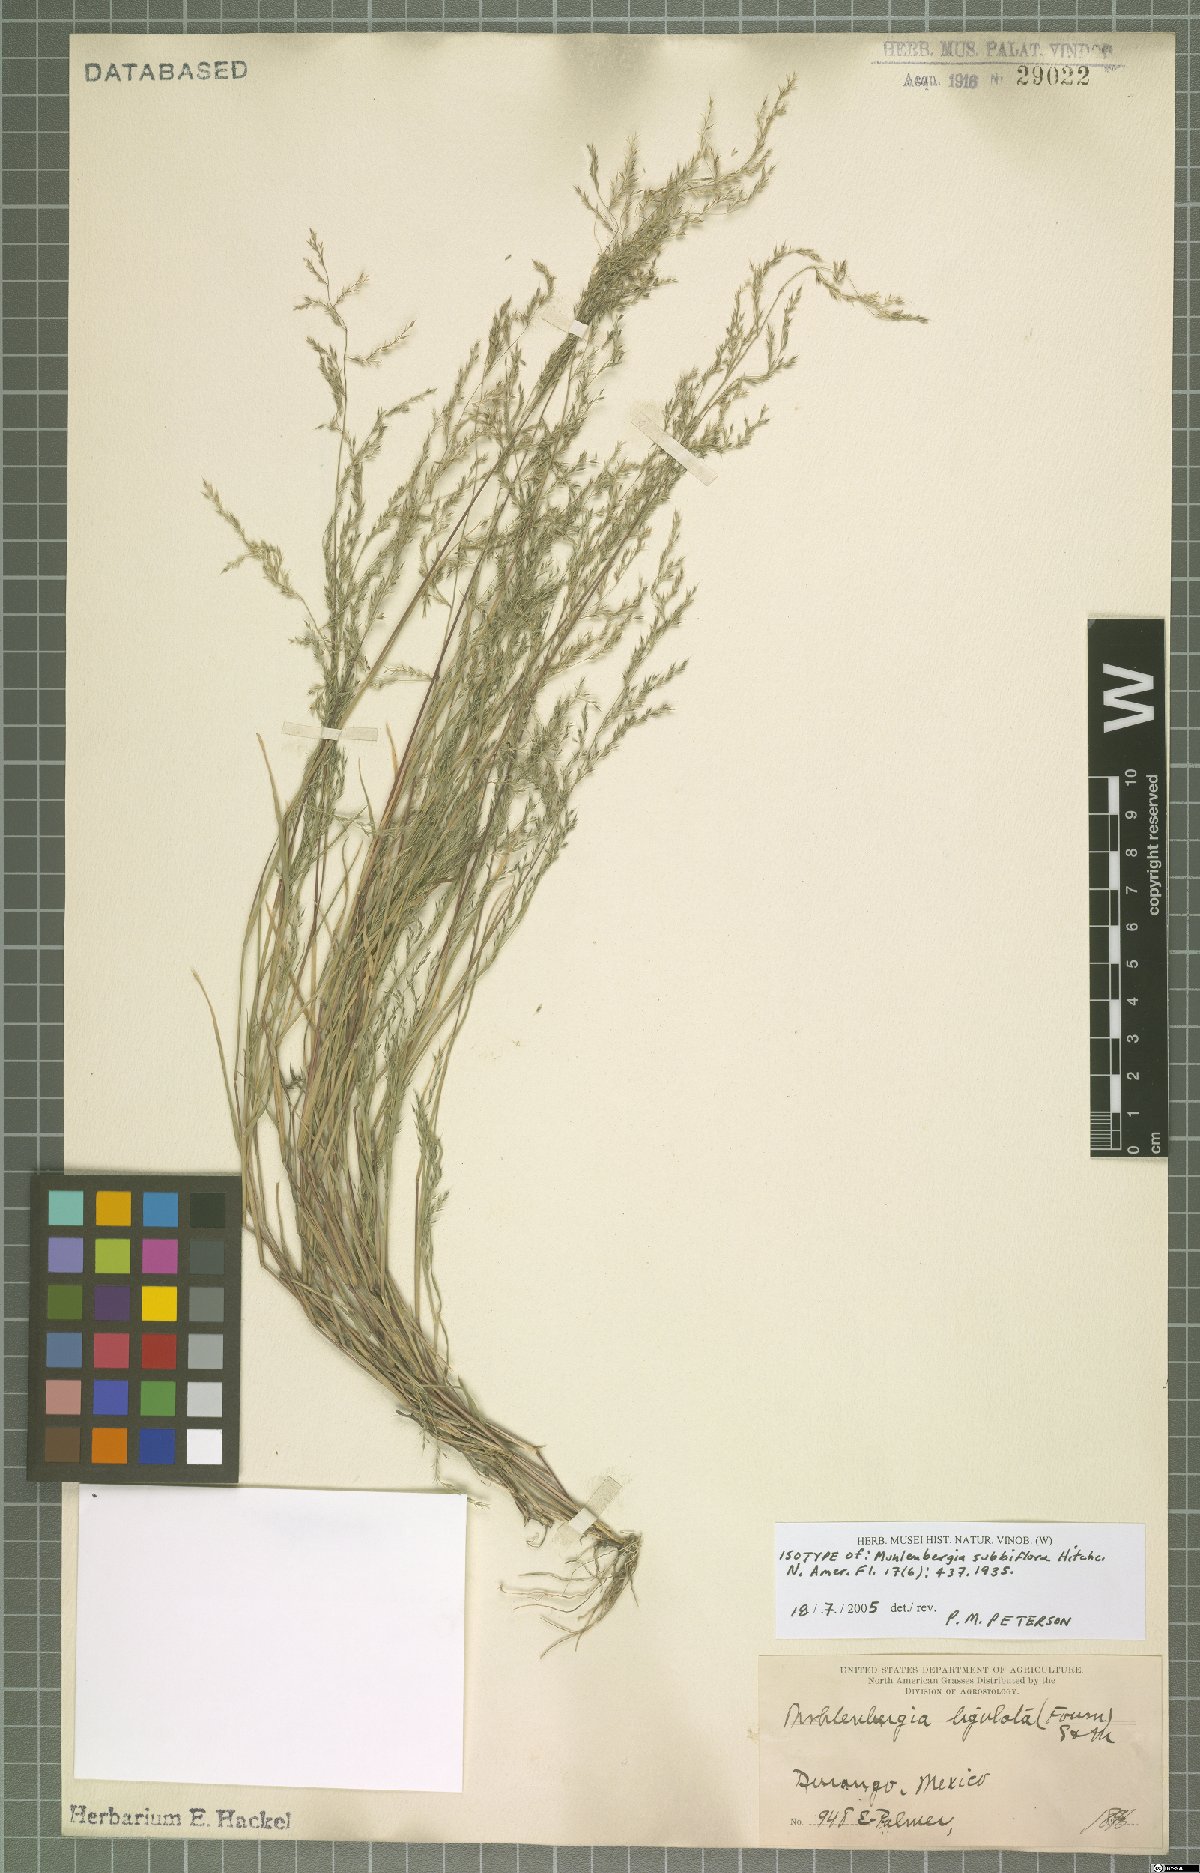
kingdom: Plantae
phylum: Tracheophyta
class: Liliopsida
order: Poales
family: Poaceae
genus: Muhlenbergia
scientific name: Muhlenbergia subbiflora
